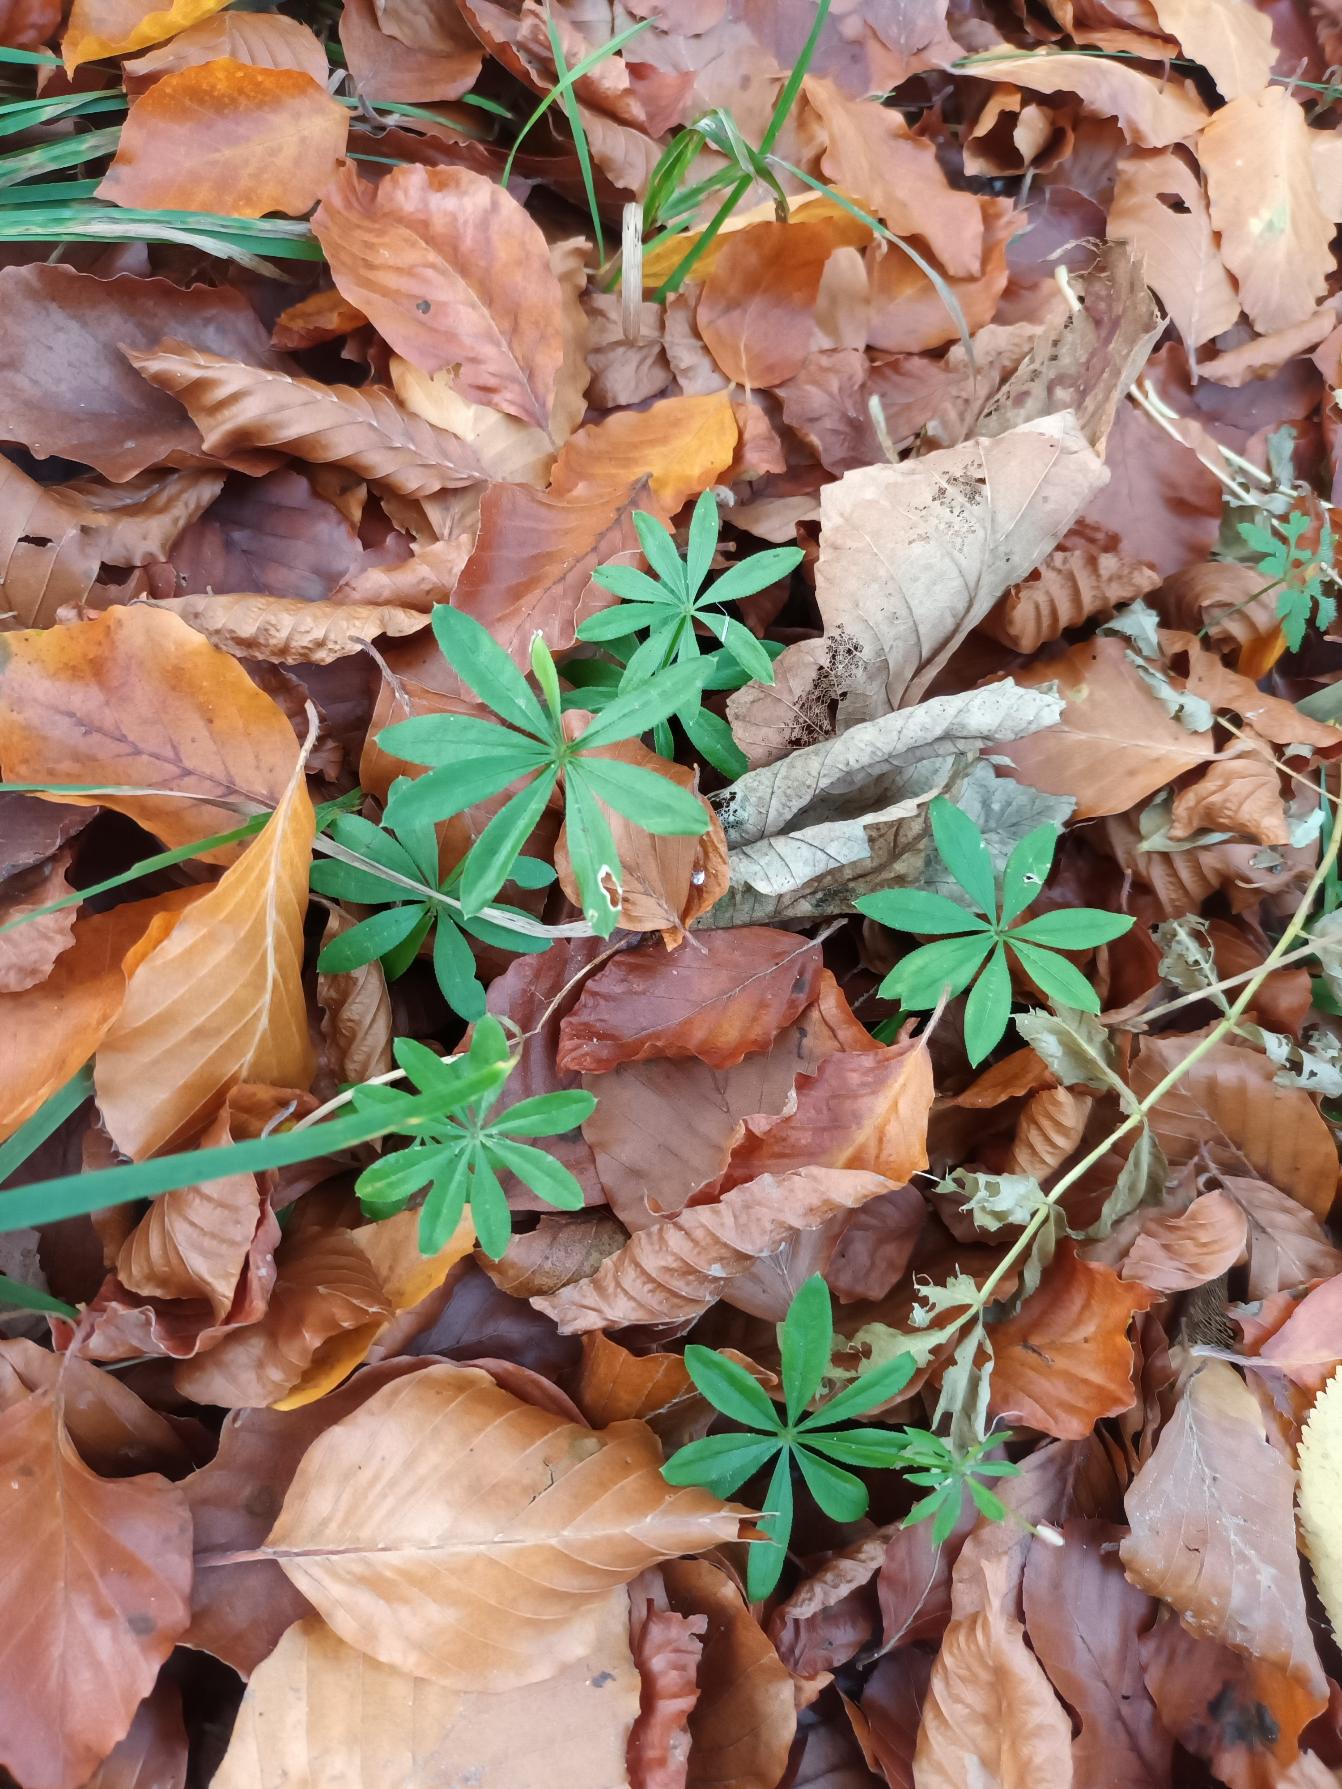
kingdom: Plantae
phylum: Tracheophyta
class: Magnoliopsida
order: Gentianales
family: Rubiaceae
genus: Galium
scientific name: Galium odoratum
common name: Skovmærke
